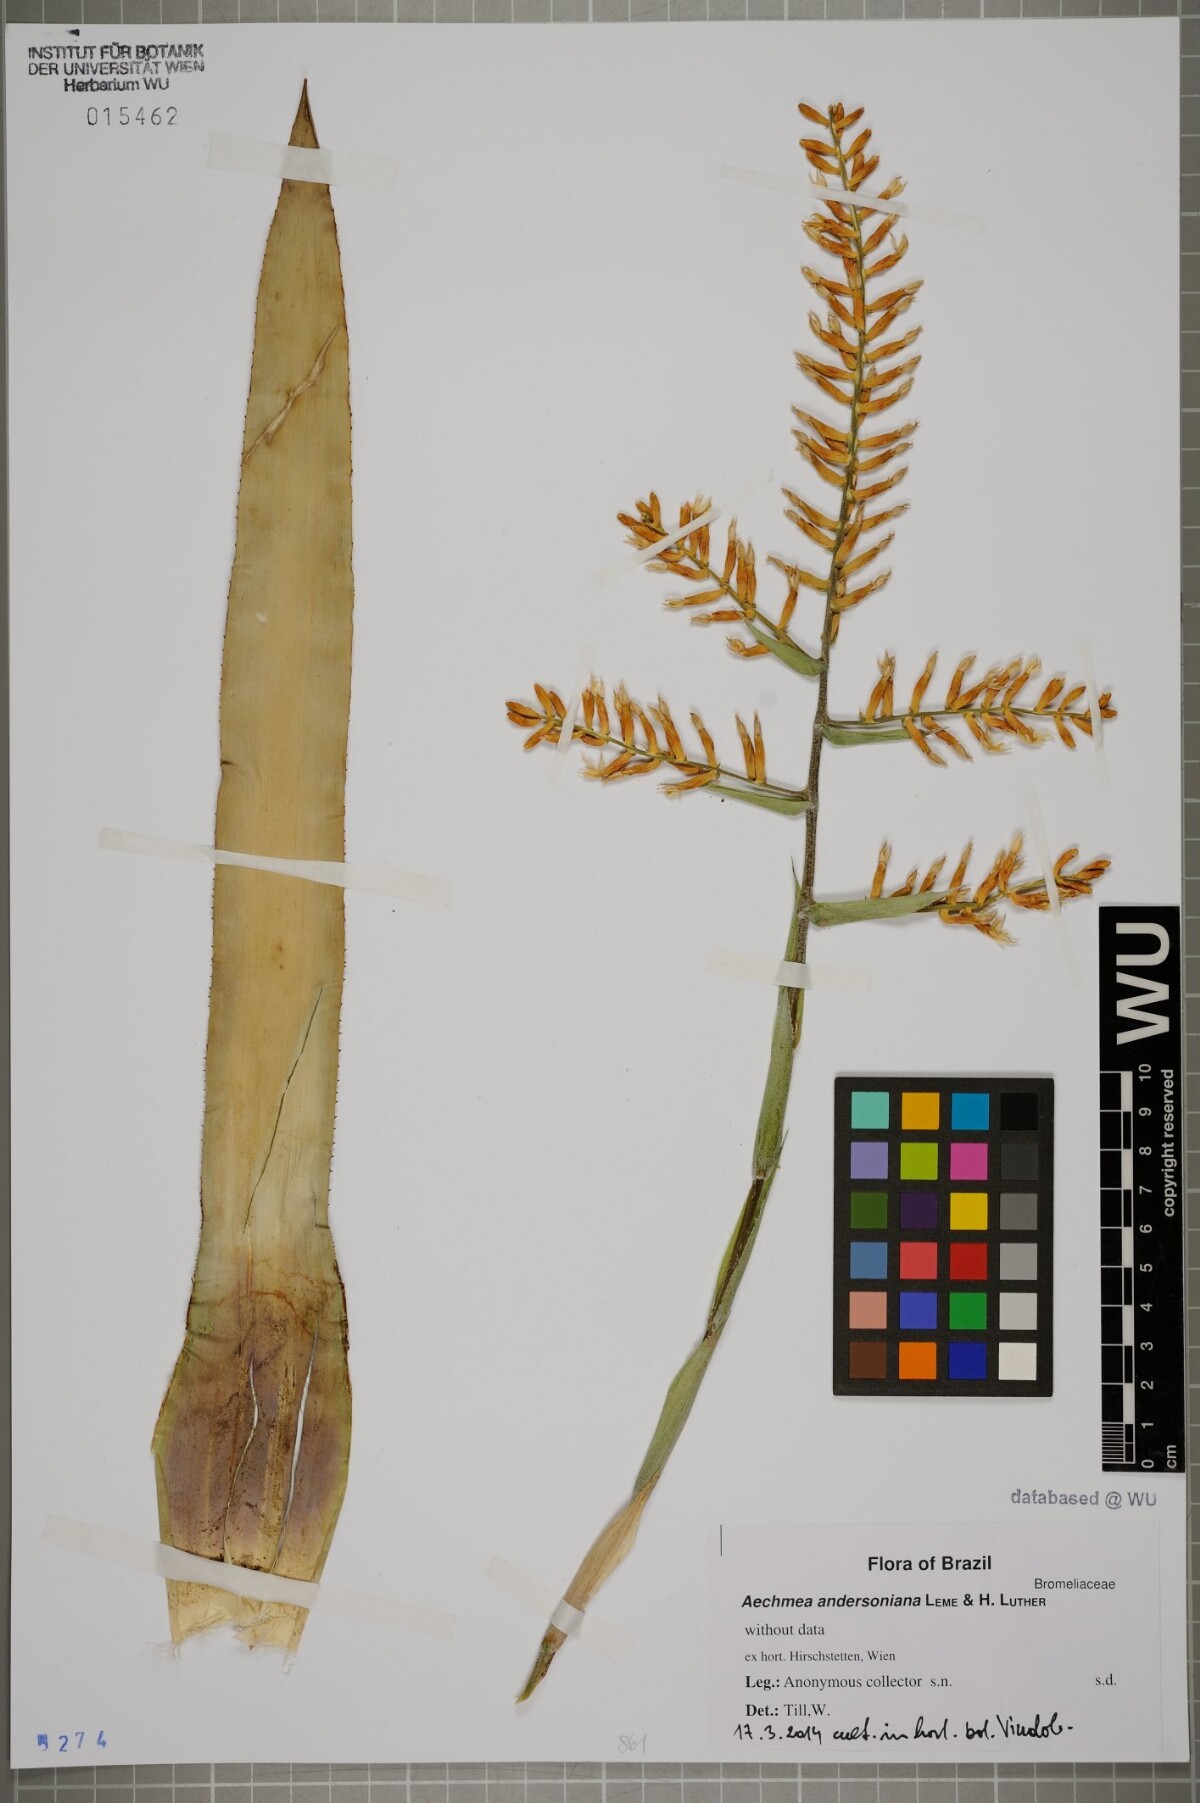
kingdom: Plantae
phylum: Tracheophyta
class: Liliopsida
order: Poales
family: Bromeliaceae
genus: Wittmackia
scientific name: Wittmackia andersoniana
